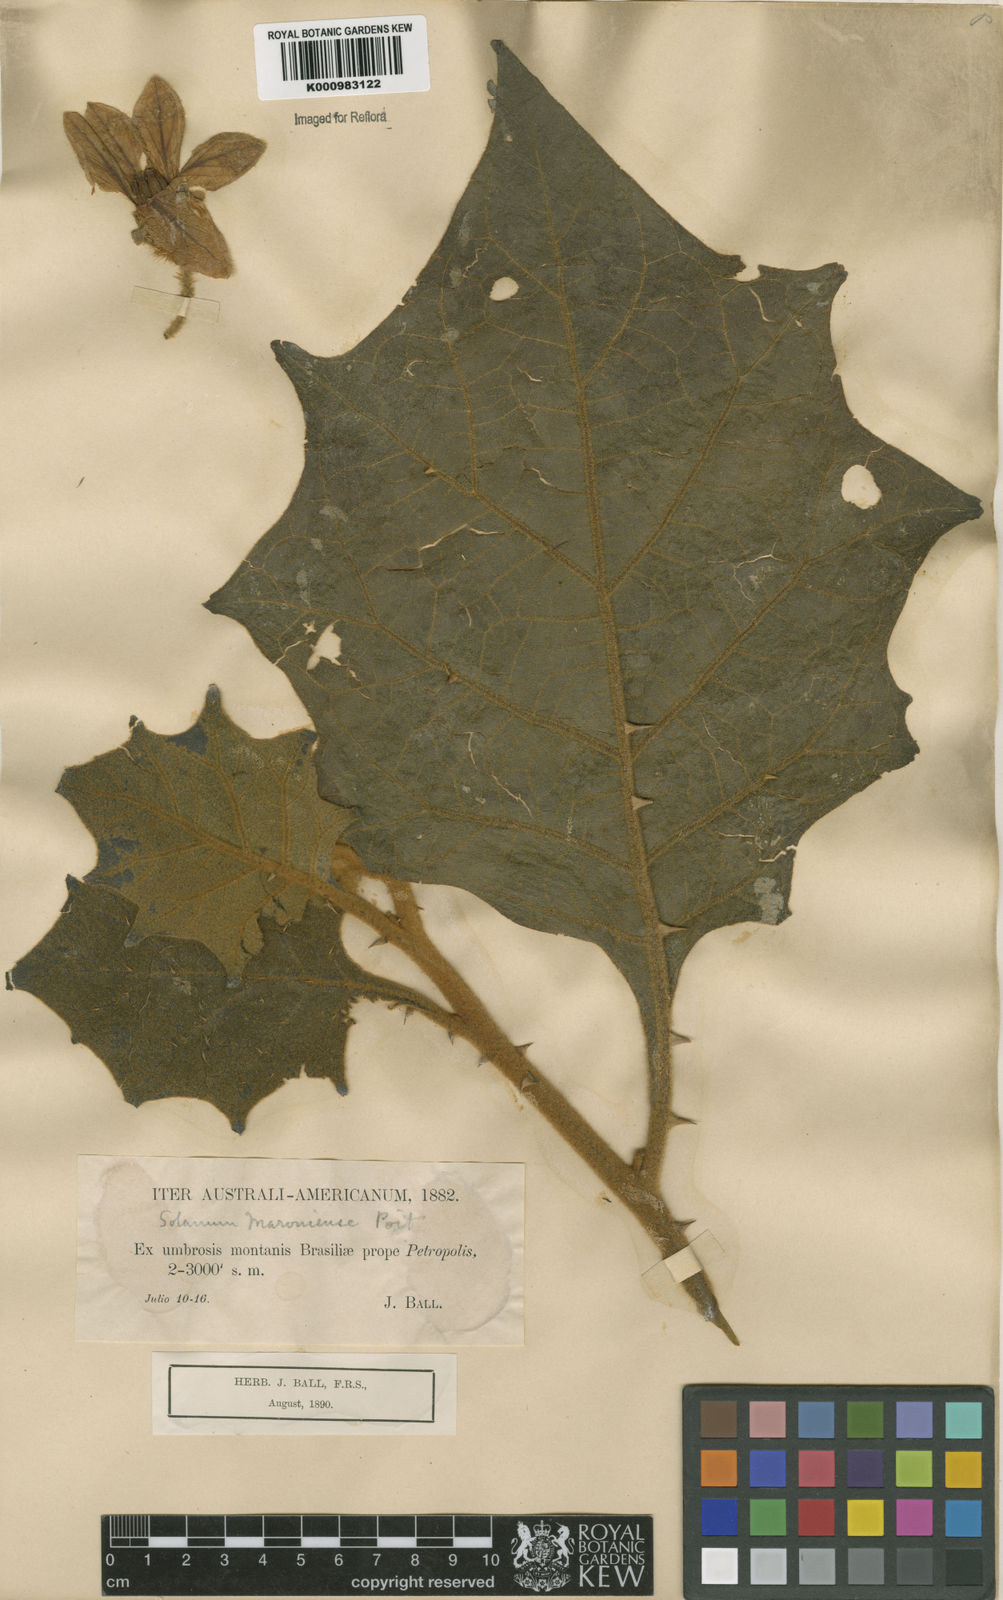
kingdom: Plantae
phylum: Tracheophyta
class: Magnoliopsida
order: Solanales
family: Solanaceae
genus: Solanum
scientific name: Solanum hexandrum
